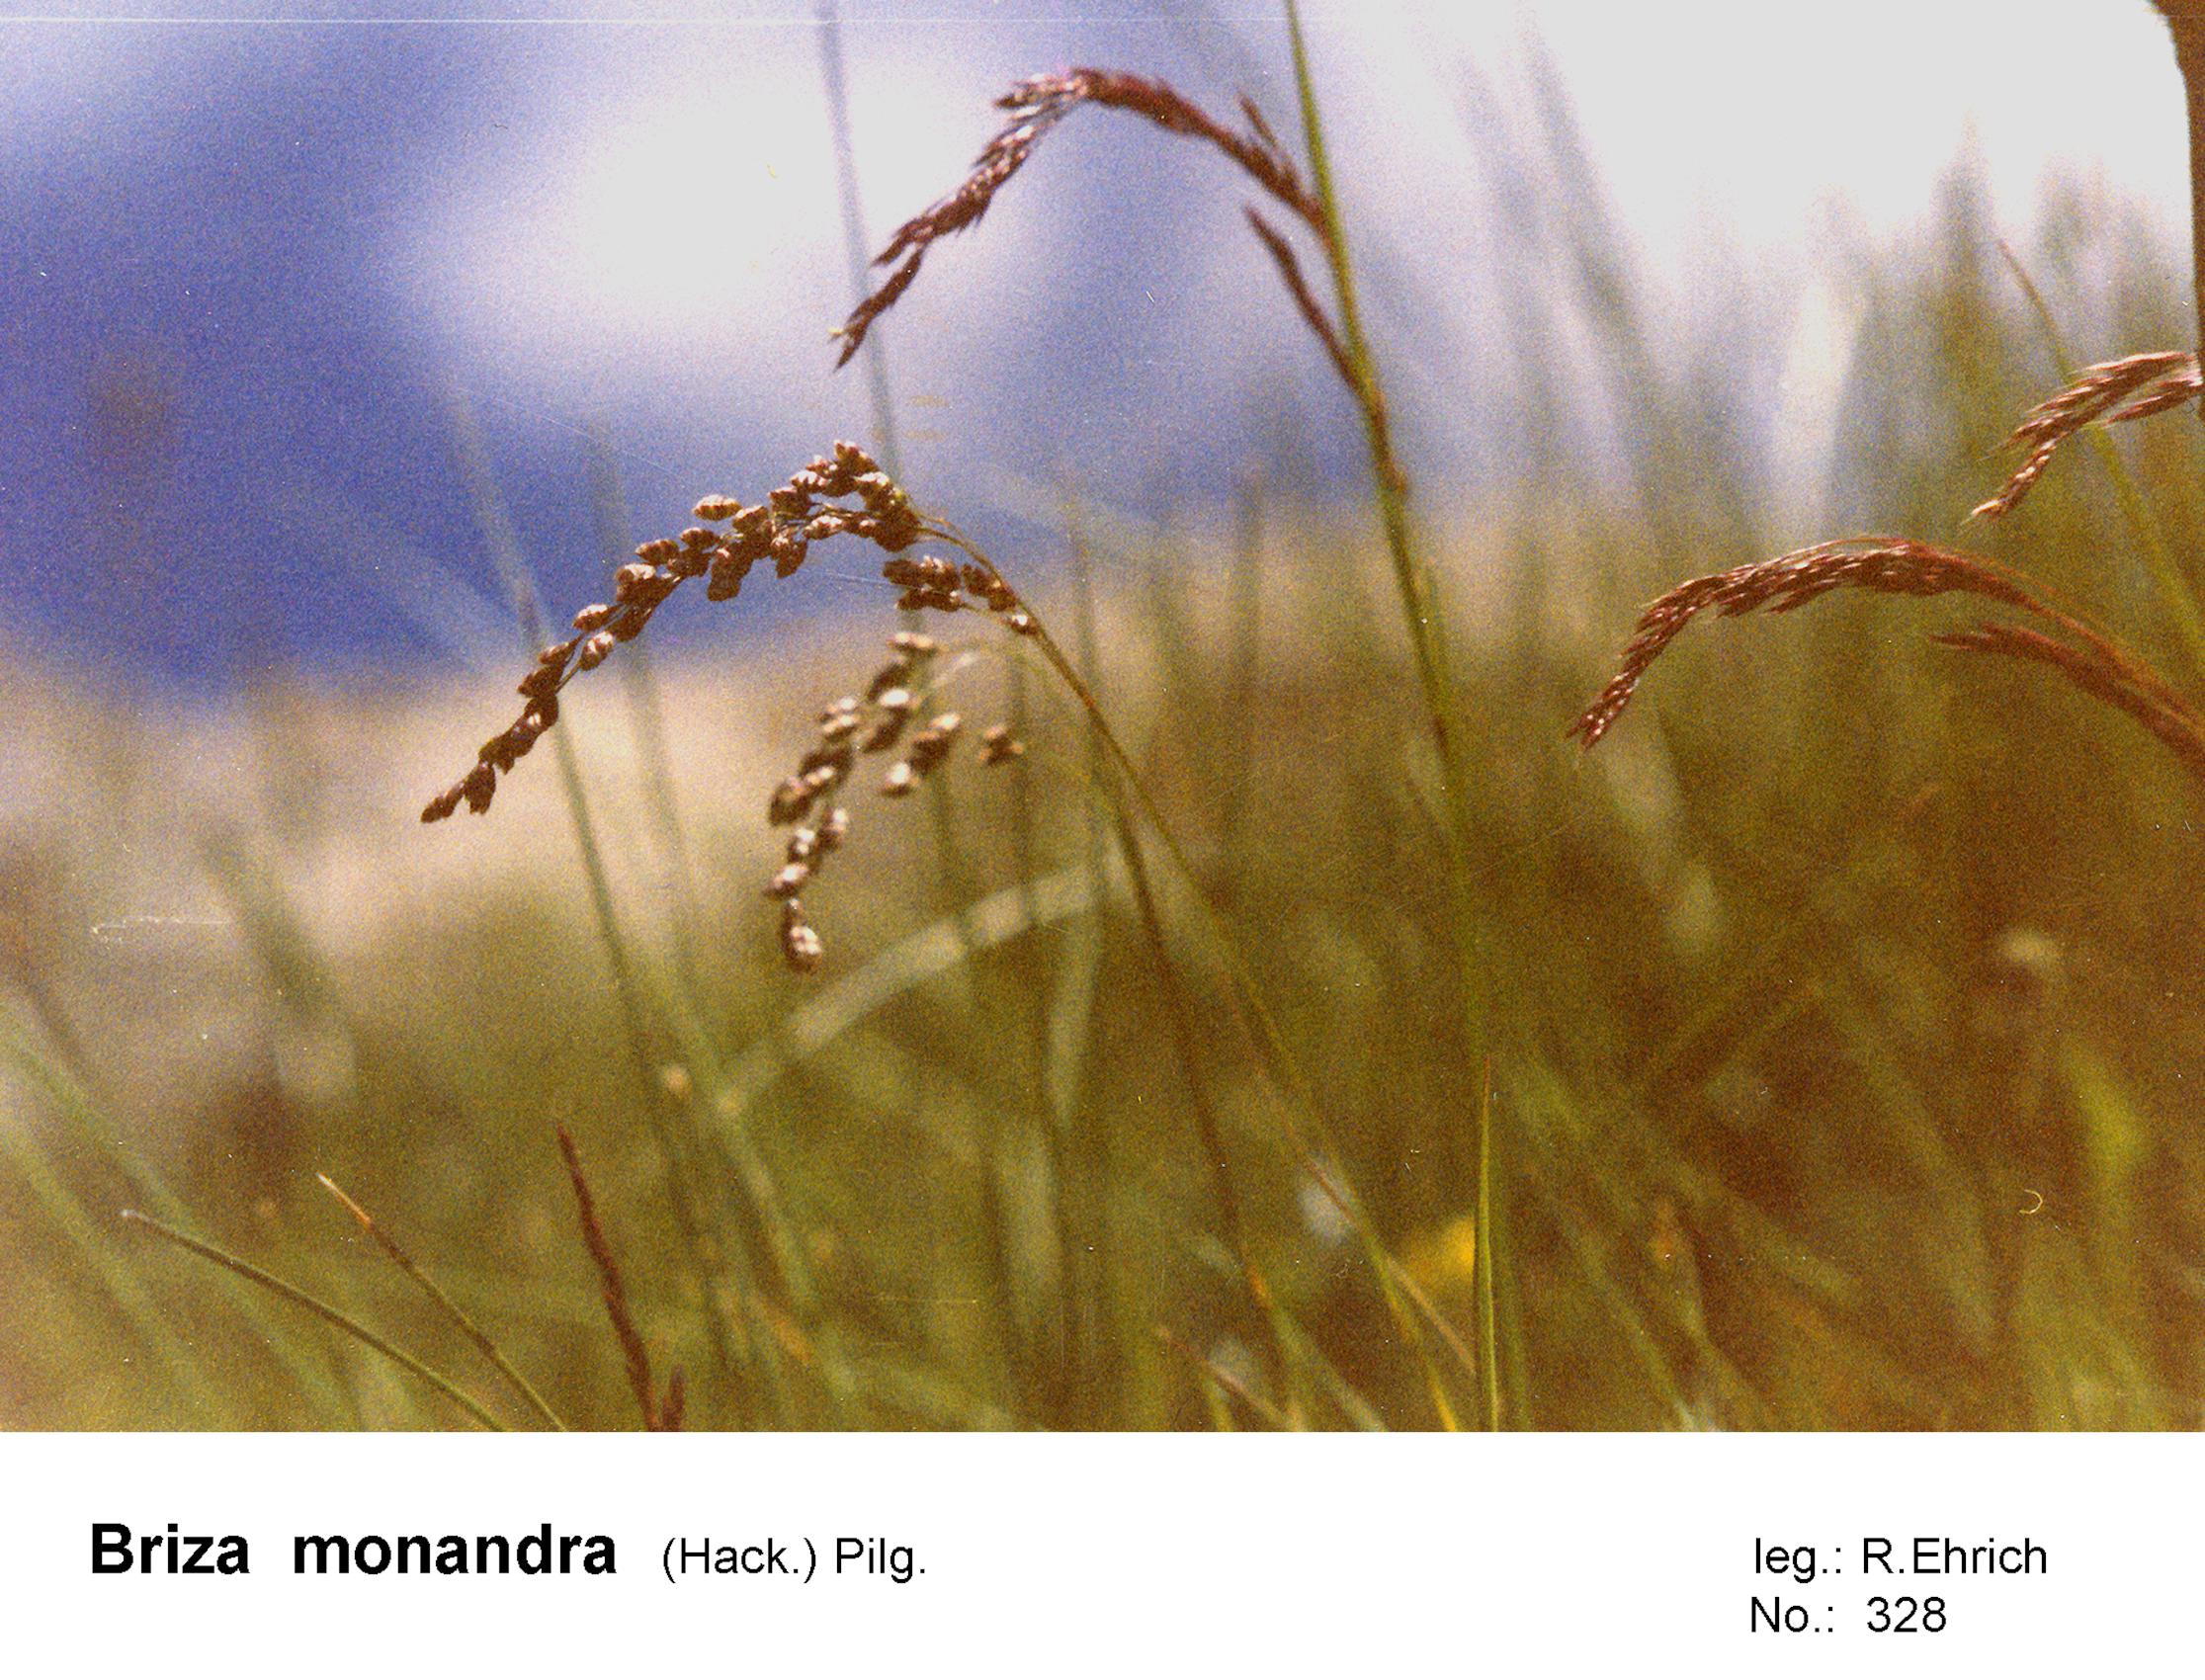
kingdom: Plantae
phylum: Tracheophyta
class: Liliopsida
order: Poales
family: Poaceae
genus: Poidium
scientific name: Poidium monandrum
